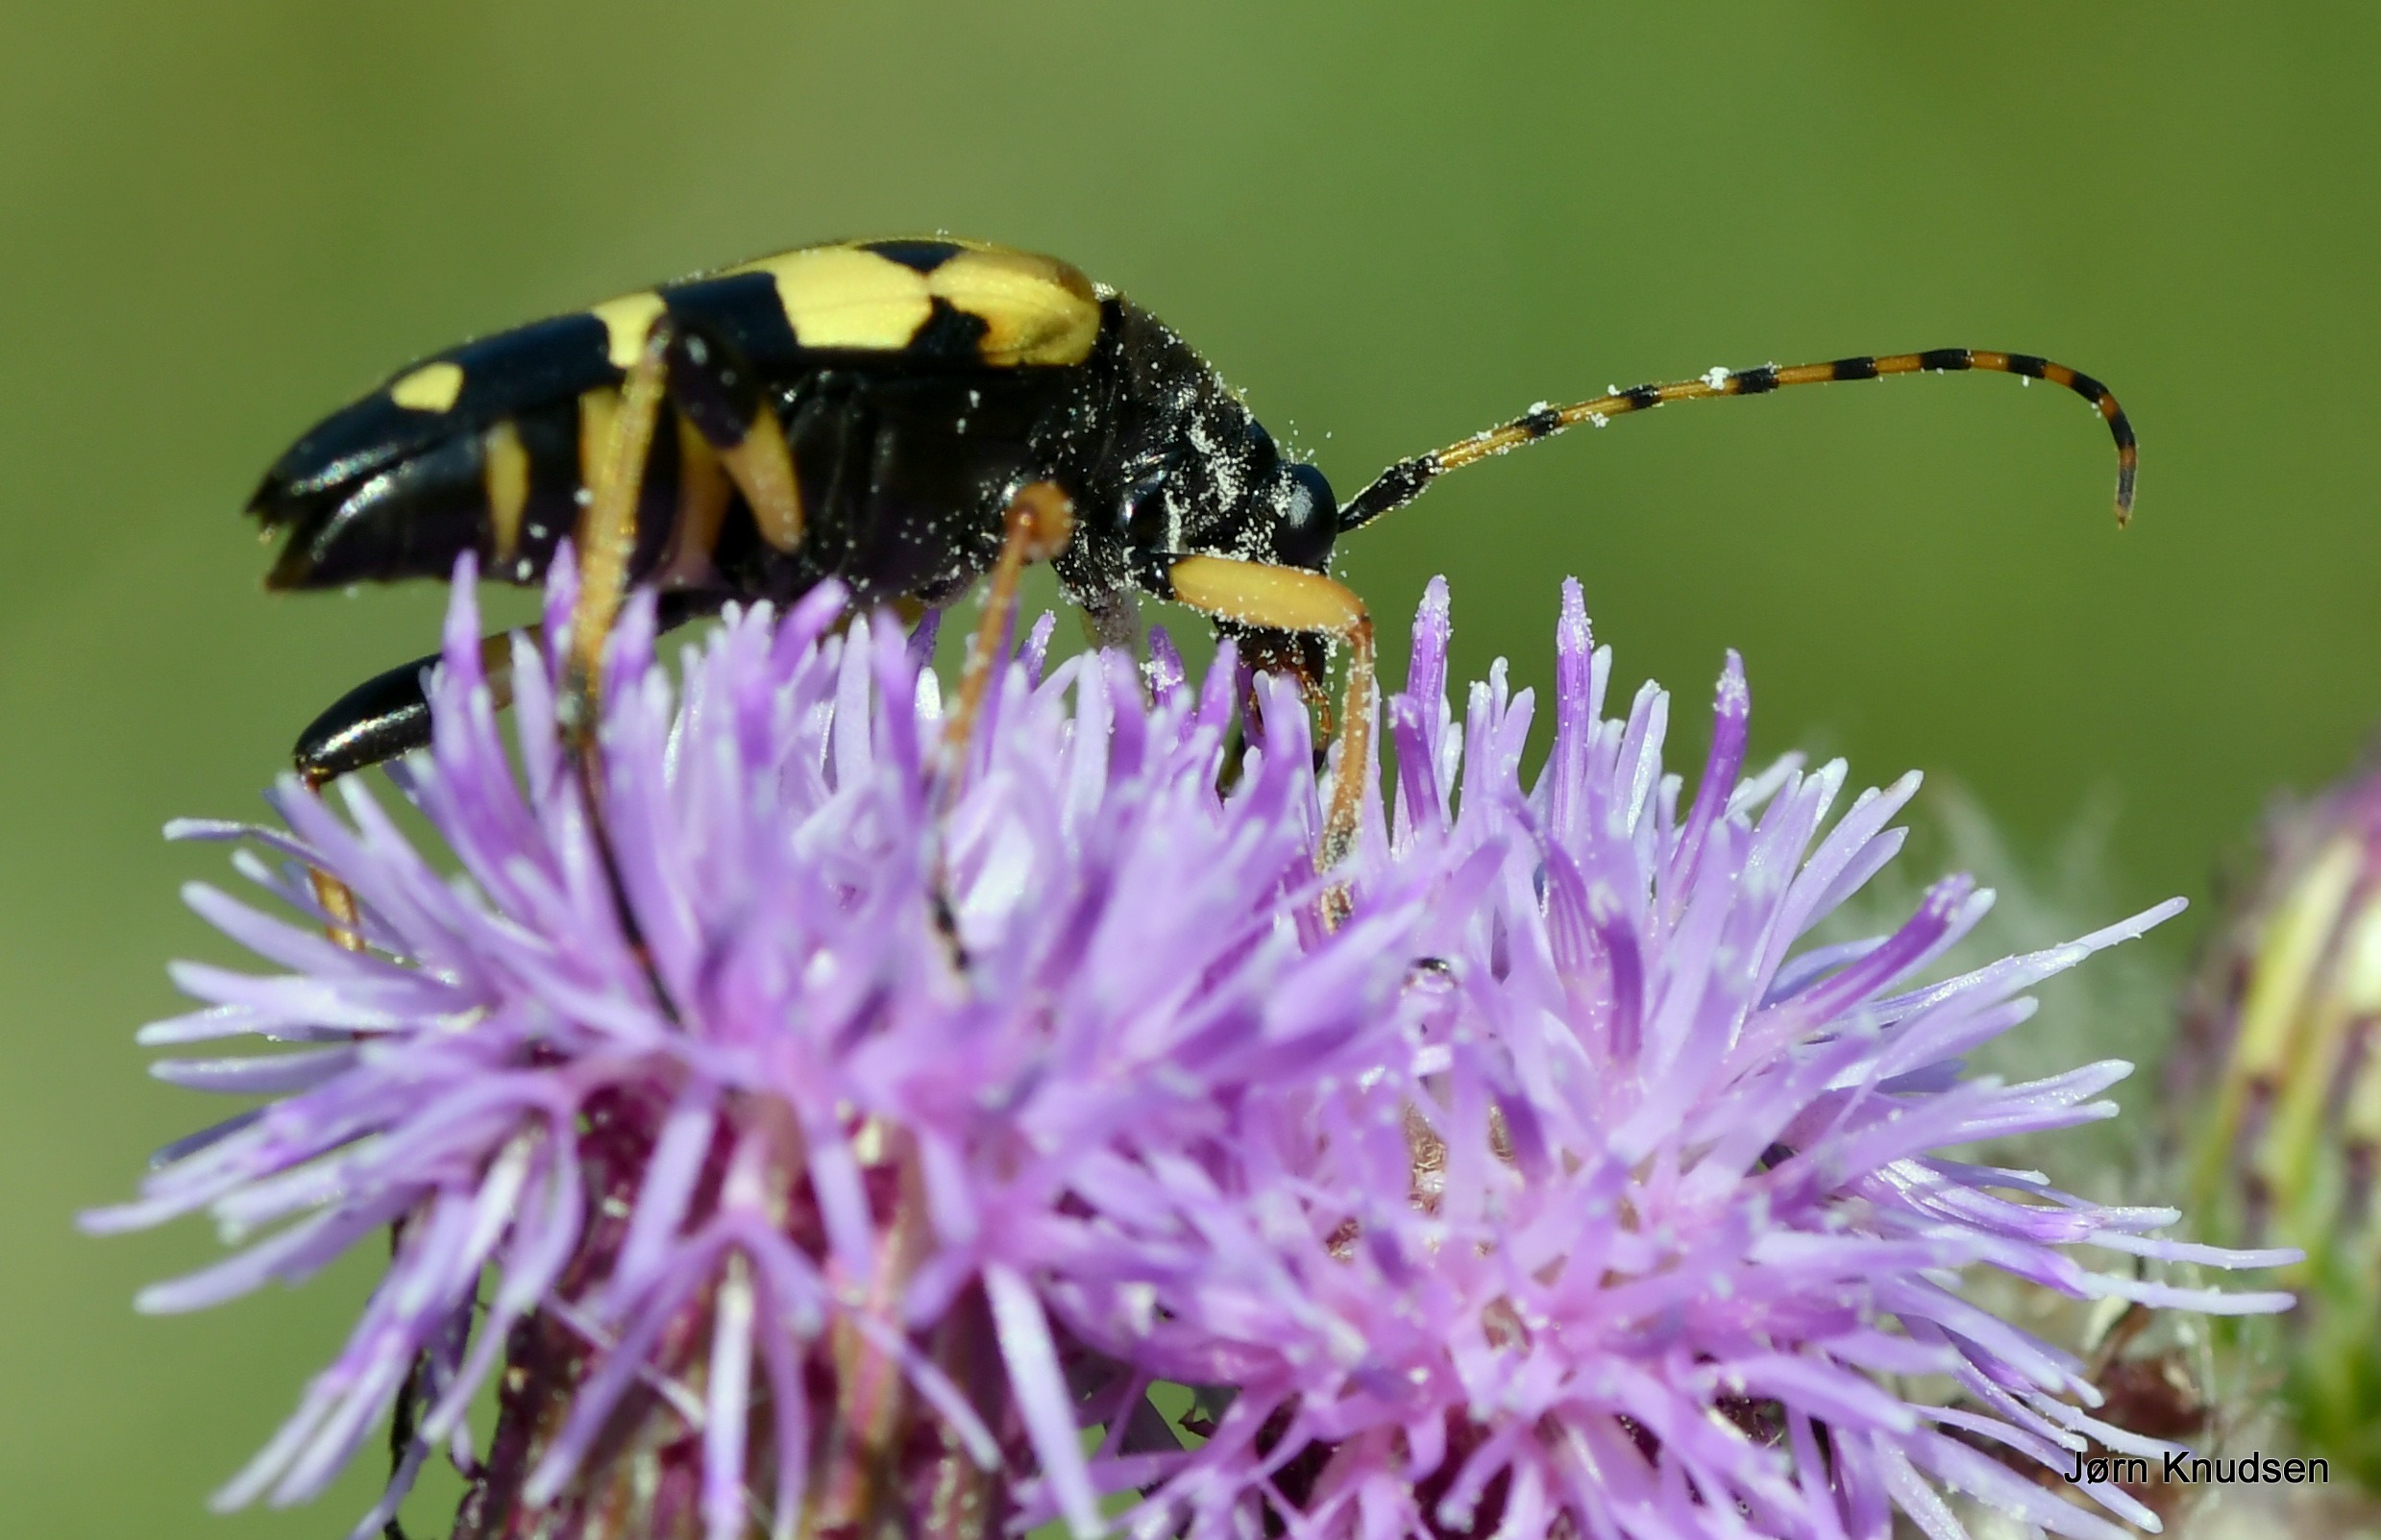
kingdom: Animalia
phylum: Arthropoda
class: Insecta
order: Coleoptera
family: Cerambycidae
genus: Rutpela
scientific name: Rutpela maculata
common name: Sydlig blomsterbuk
